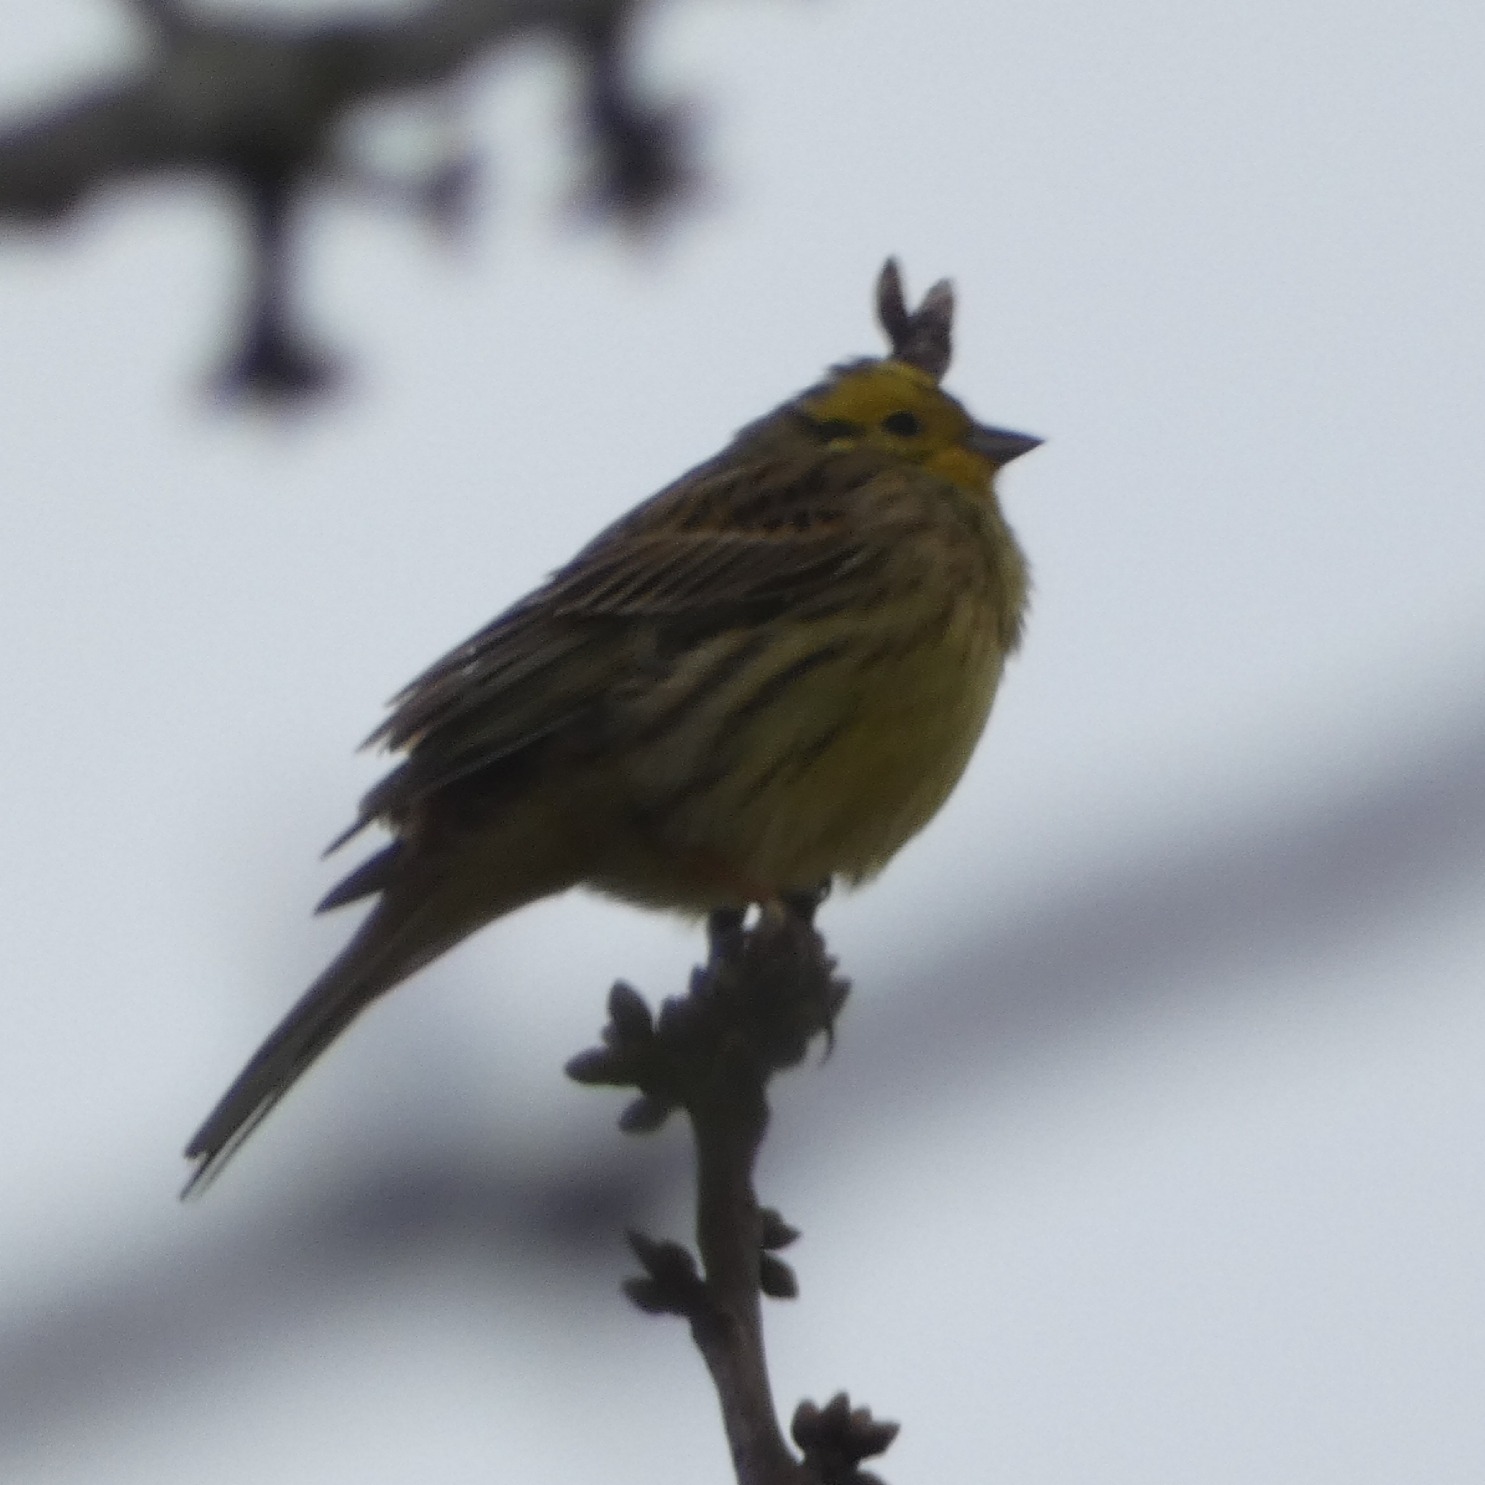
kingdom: Animalia
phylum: Chordata
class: Aves
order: Passeriformes
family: Emberizidae
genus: Emberiza
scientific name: Emberiza citrinella
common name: Gulspurv
